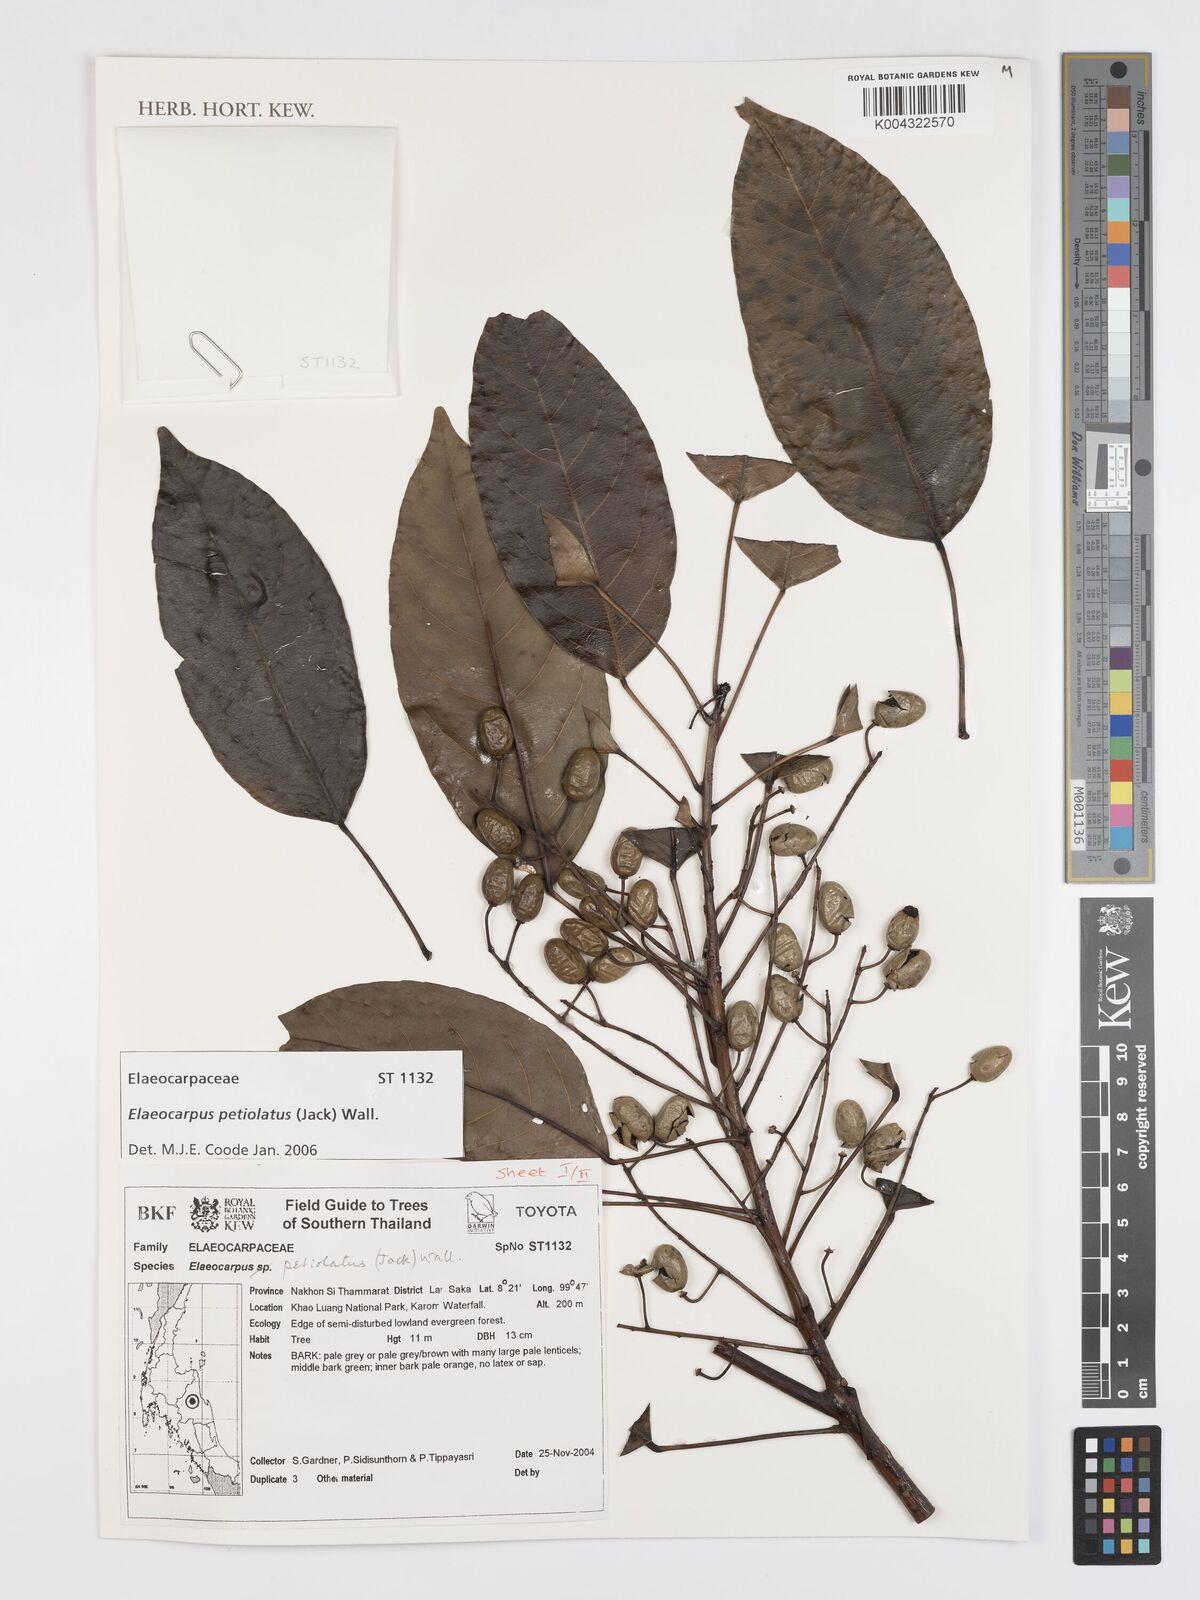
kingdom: Plantae
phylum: Tracheophyta
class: Magnoliopsida
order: Oxalidales
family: Elaeocarpaceae
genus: Elaeocarpus
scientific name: Elaeocarpus petiolatus
